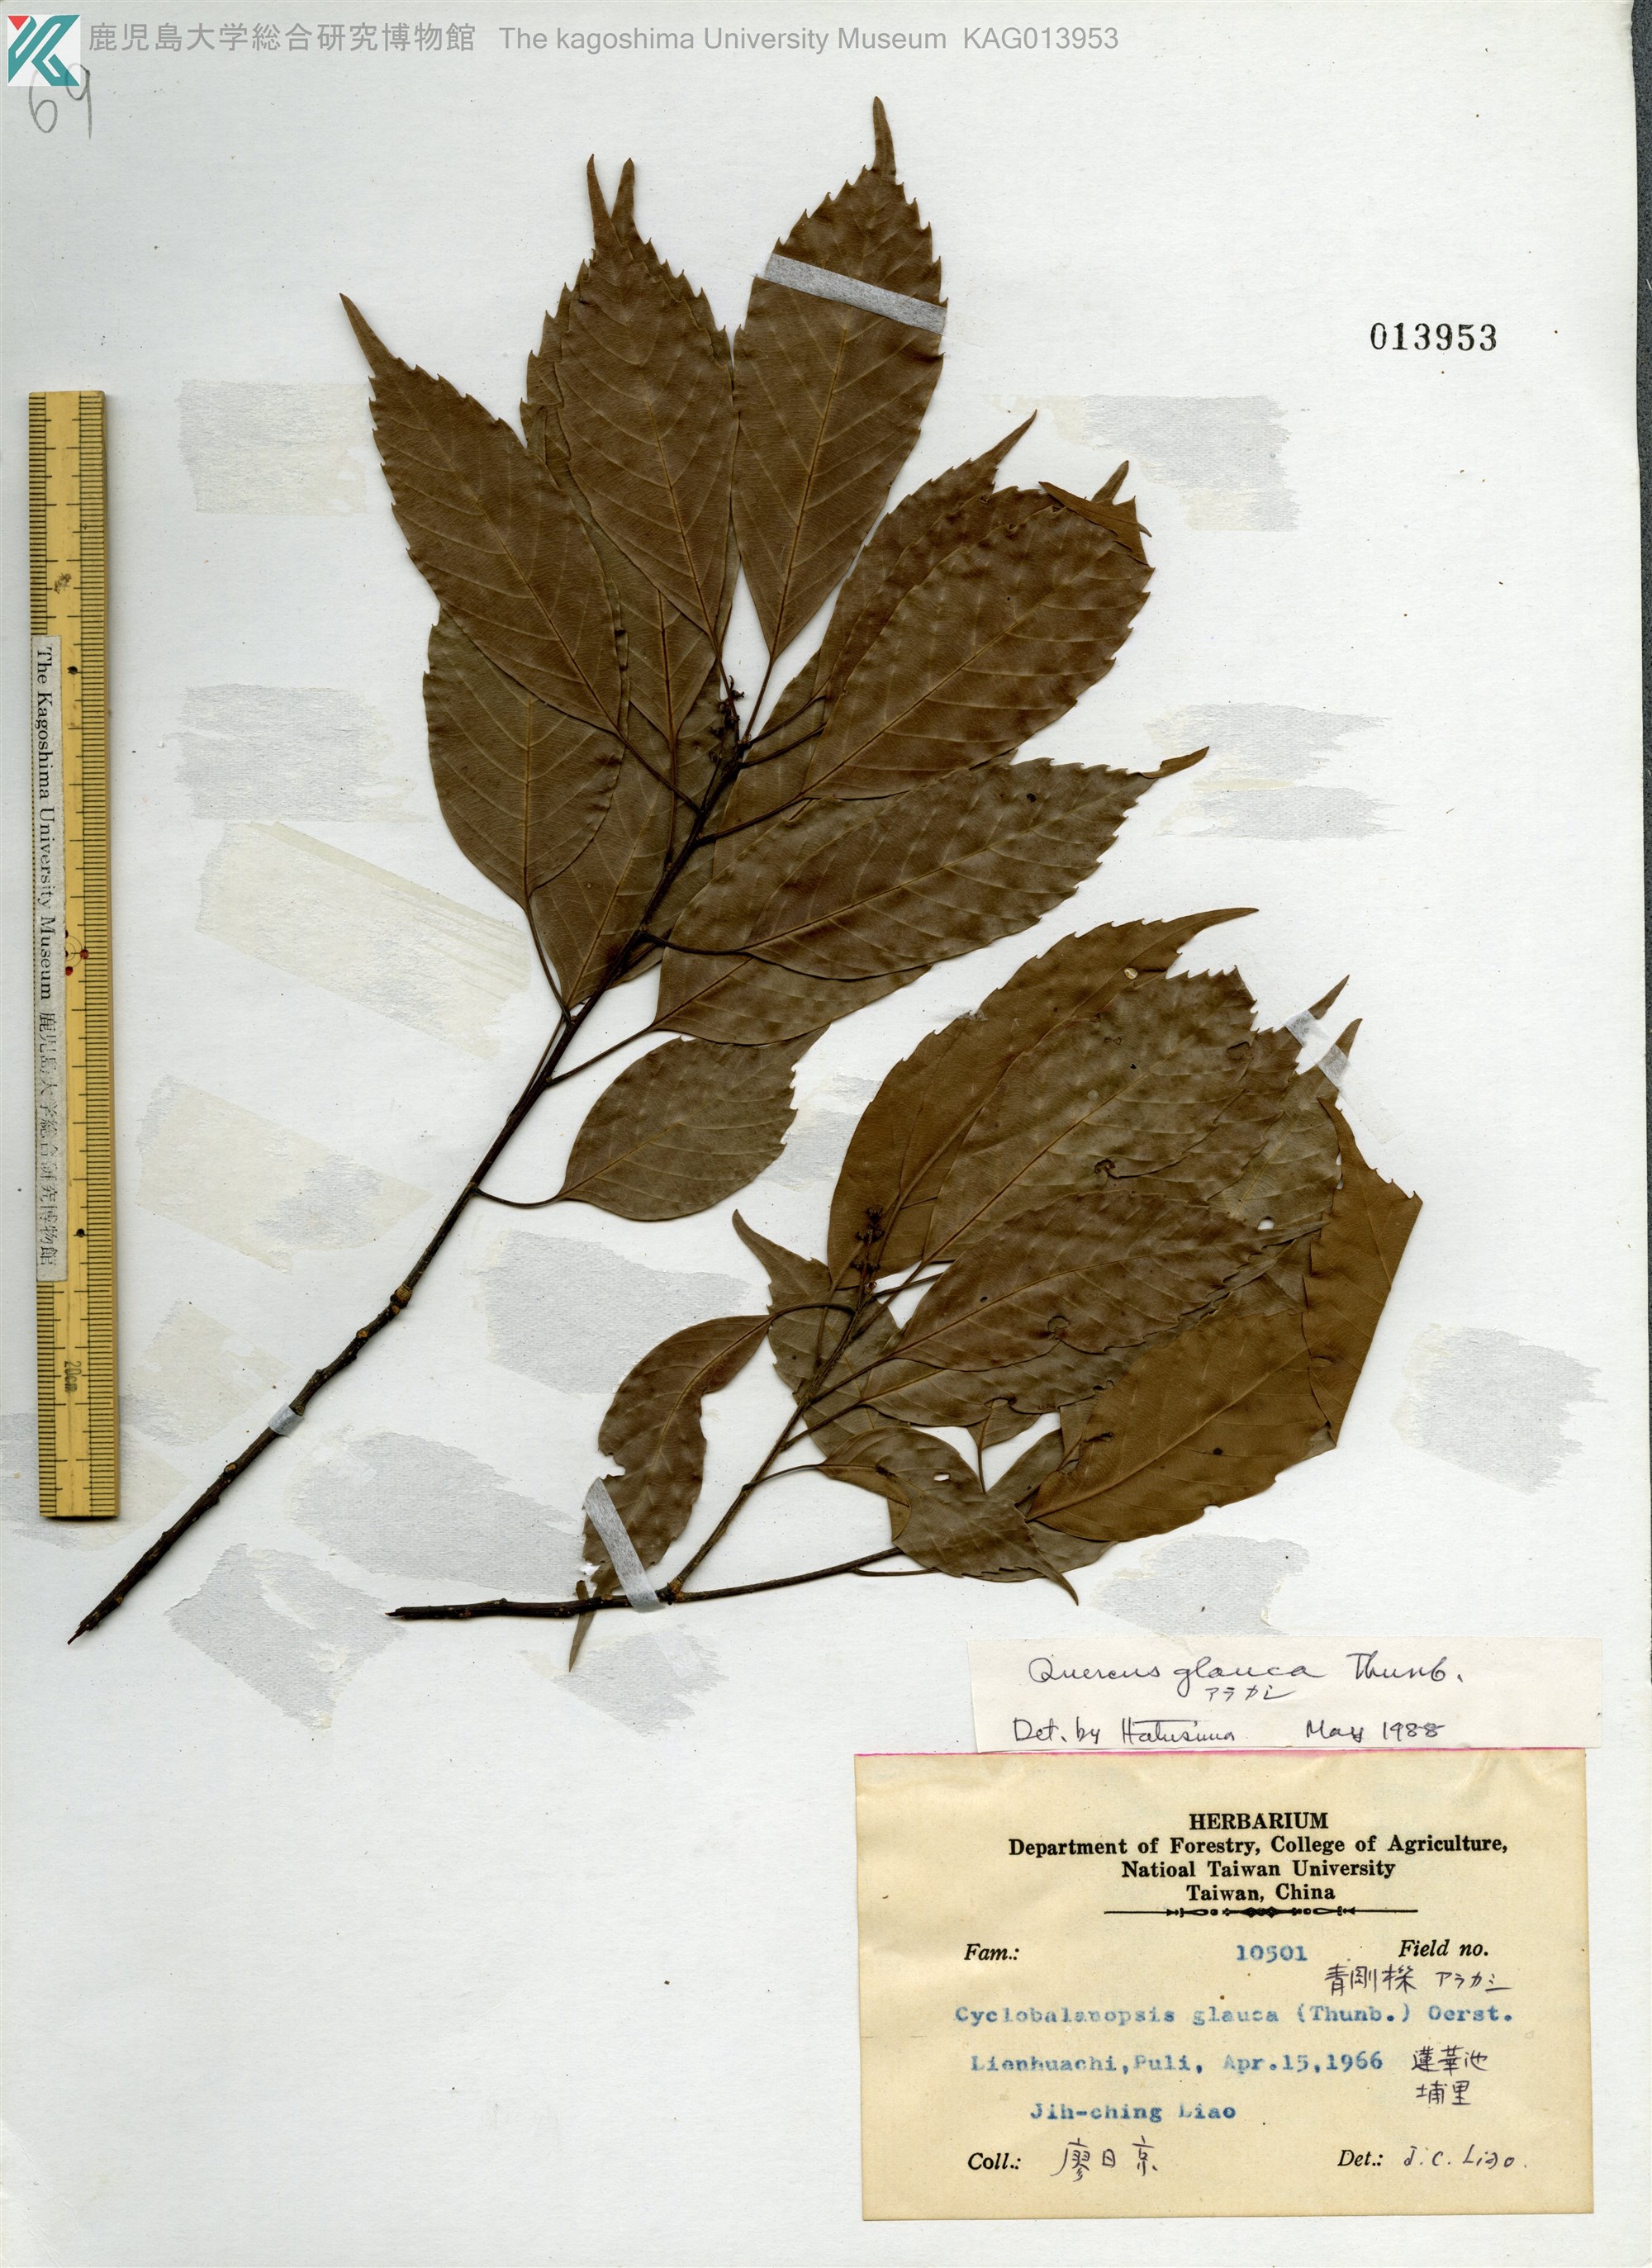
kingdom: Plantae
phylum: Tracheophyta
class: Magnoliopsida
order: Fagales
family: Fagaceae
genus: Quercus
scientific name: Quercus glauca
